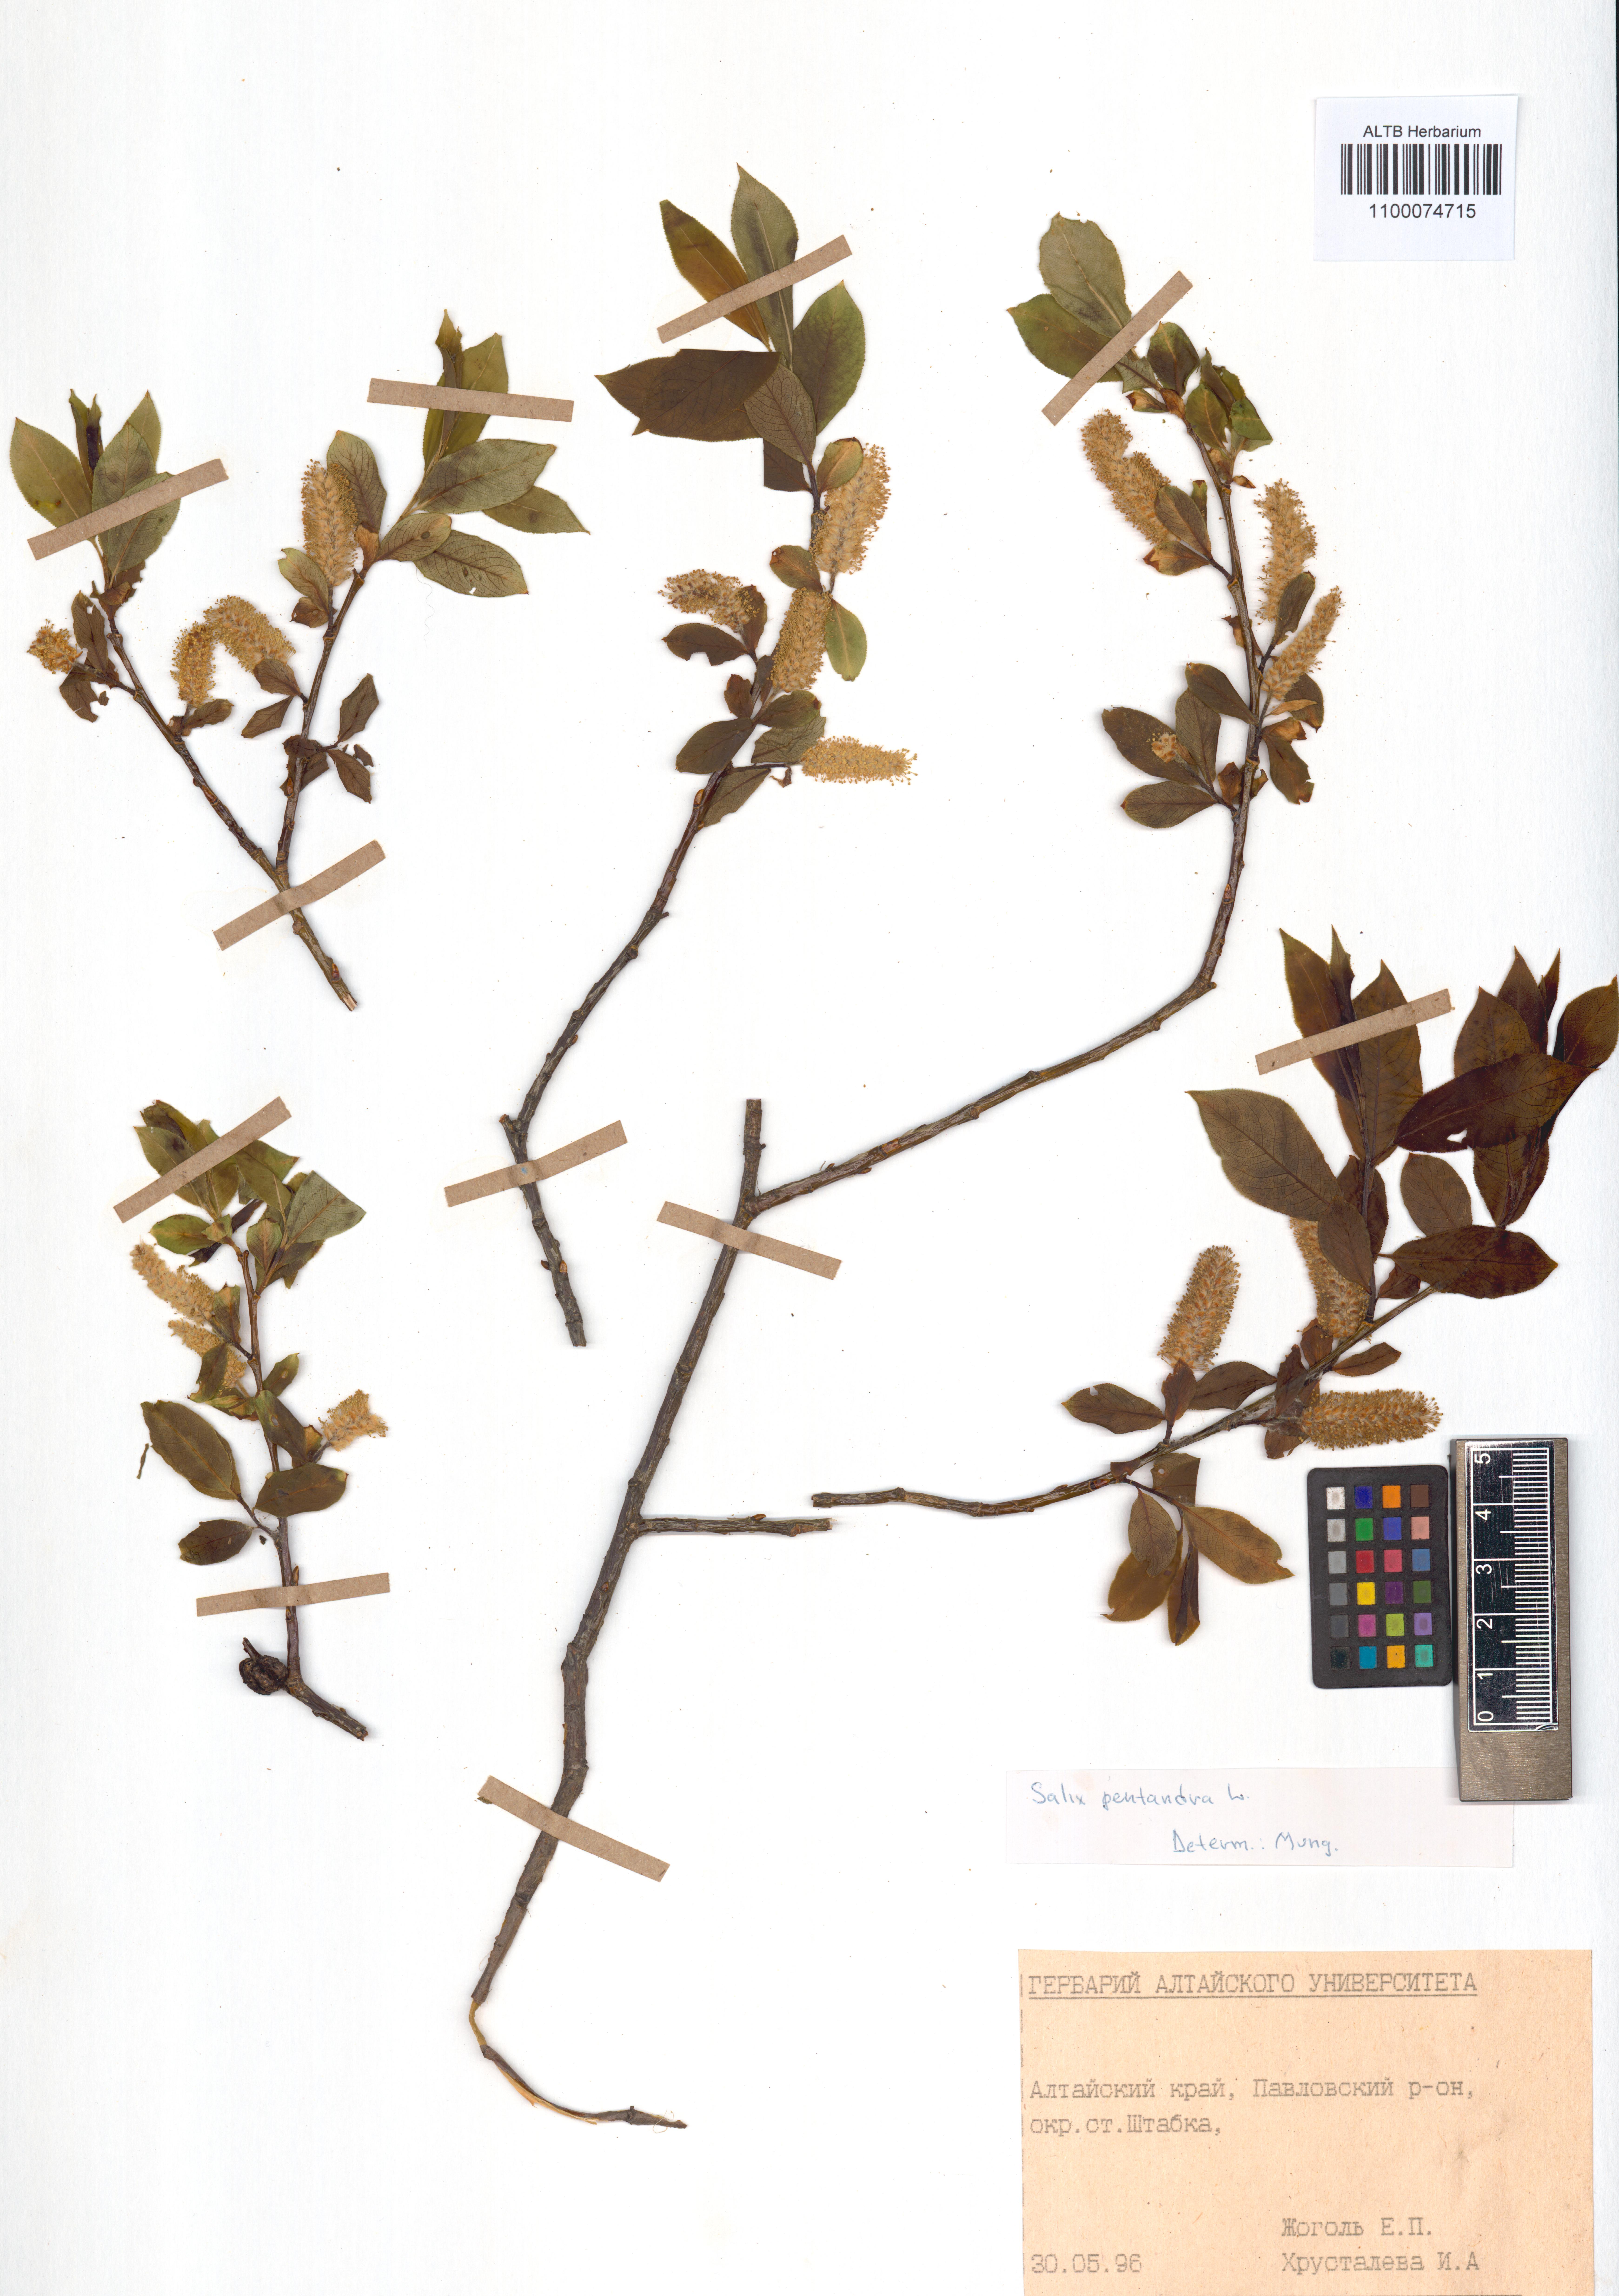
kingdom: Plantae
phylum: Tracheophyta
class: Magnoliopsida
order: Malpighiales
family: Salicaceae
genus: Salix
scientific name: Salix pentandra
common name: Bay willow
